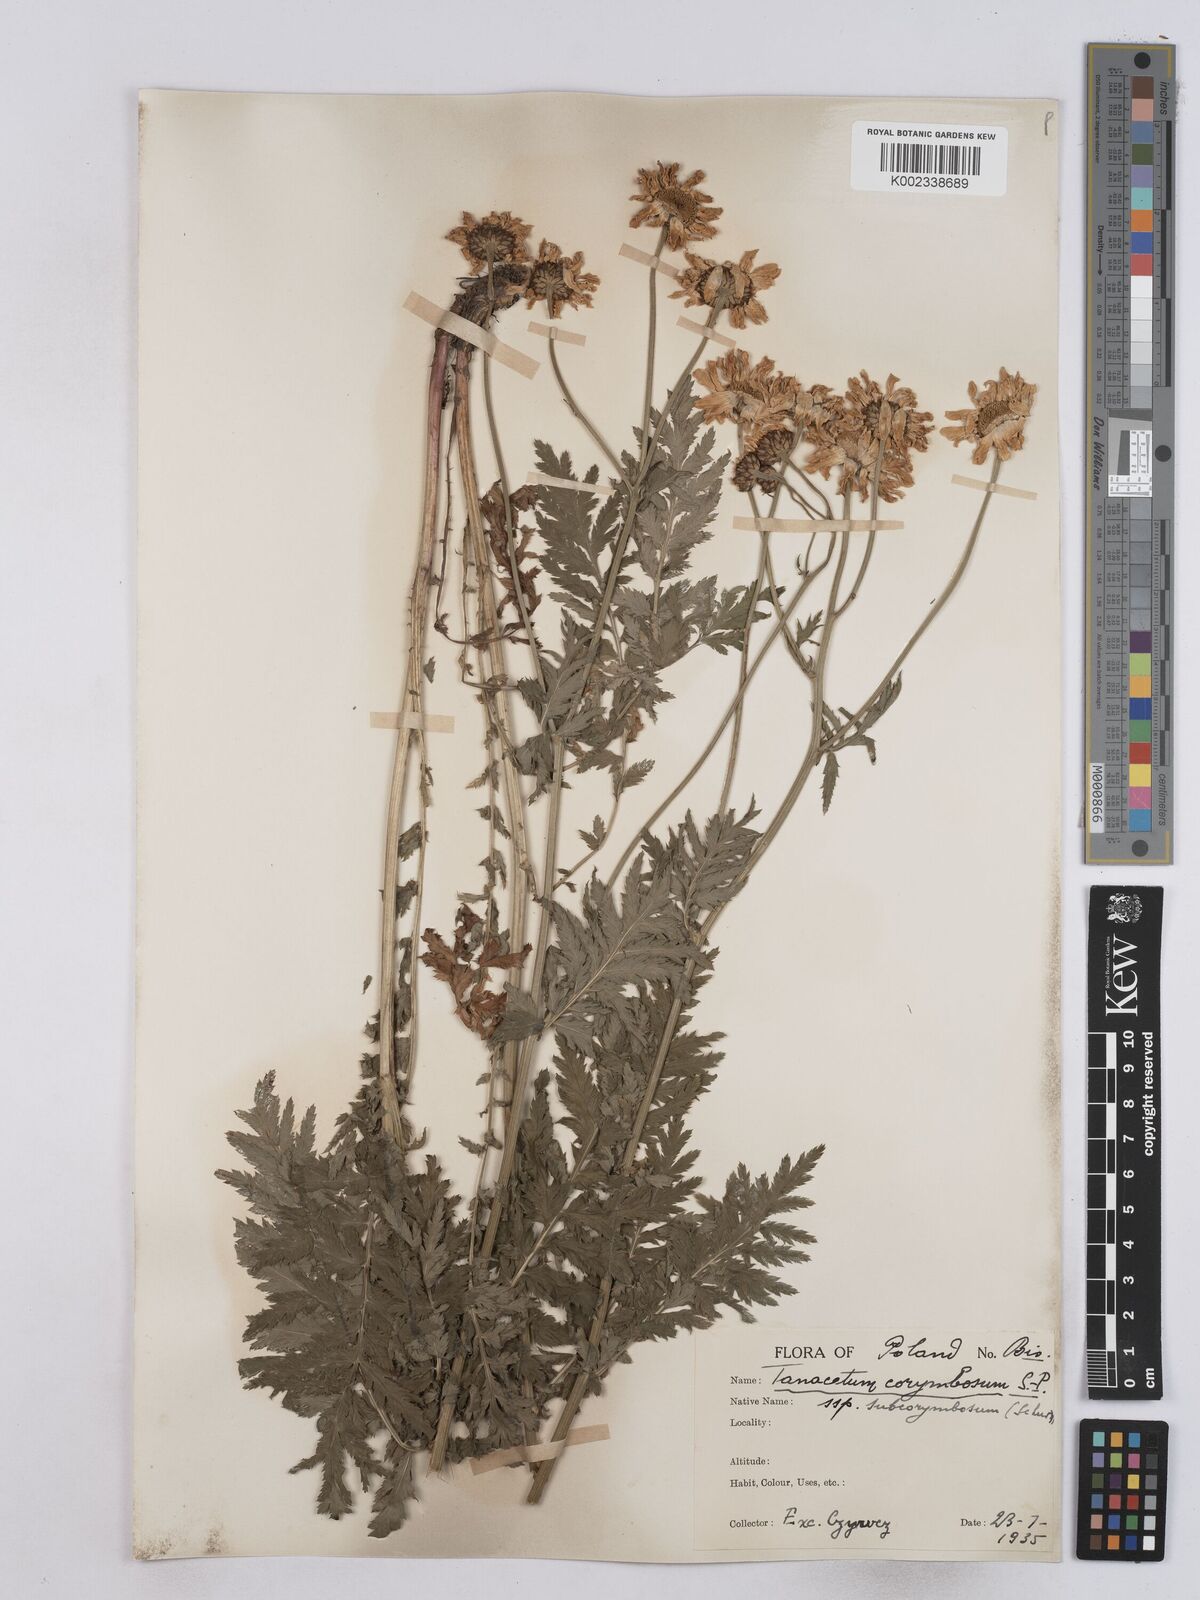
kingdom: Plantae
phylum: Tracheophyta
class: Magnoliopsida
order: Asterales
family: Asteraceae
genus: Tanacetum
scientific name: Tanacetum corymbosum
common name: Scentless feverfew
